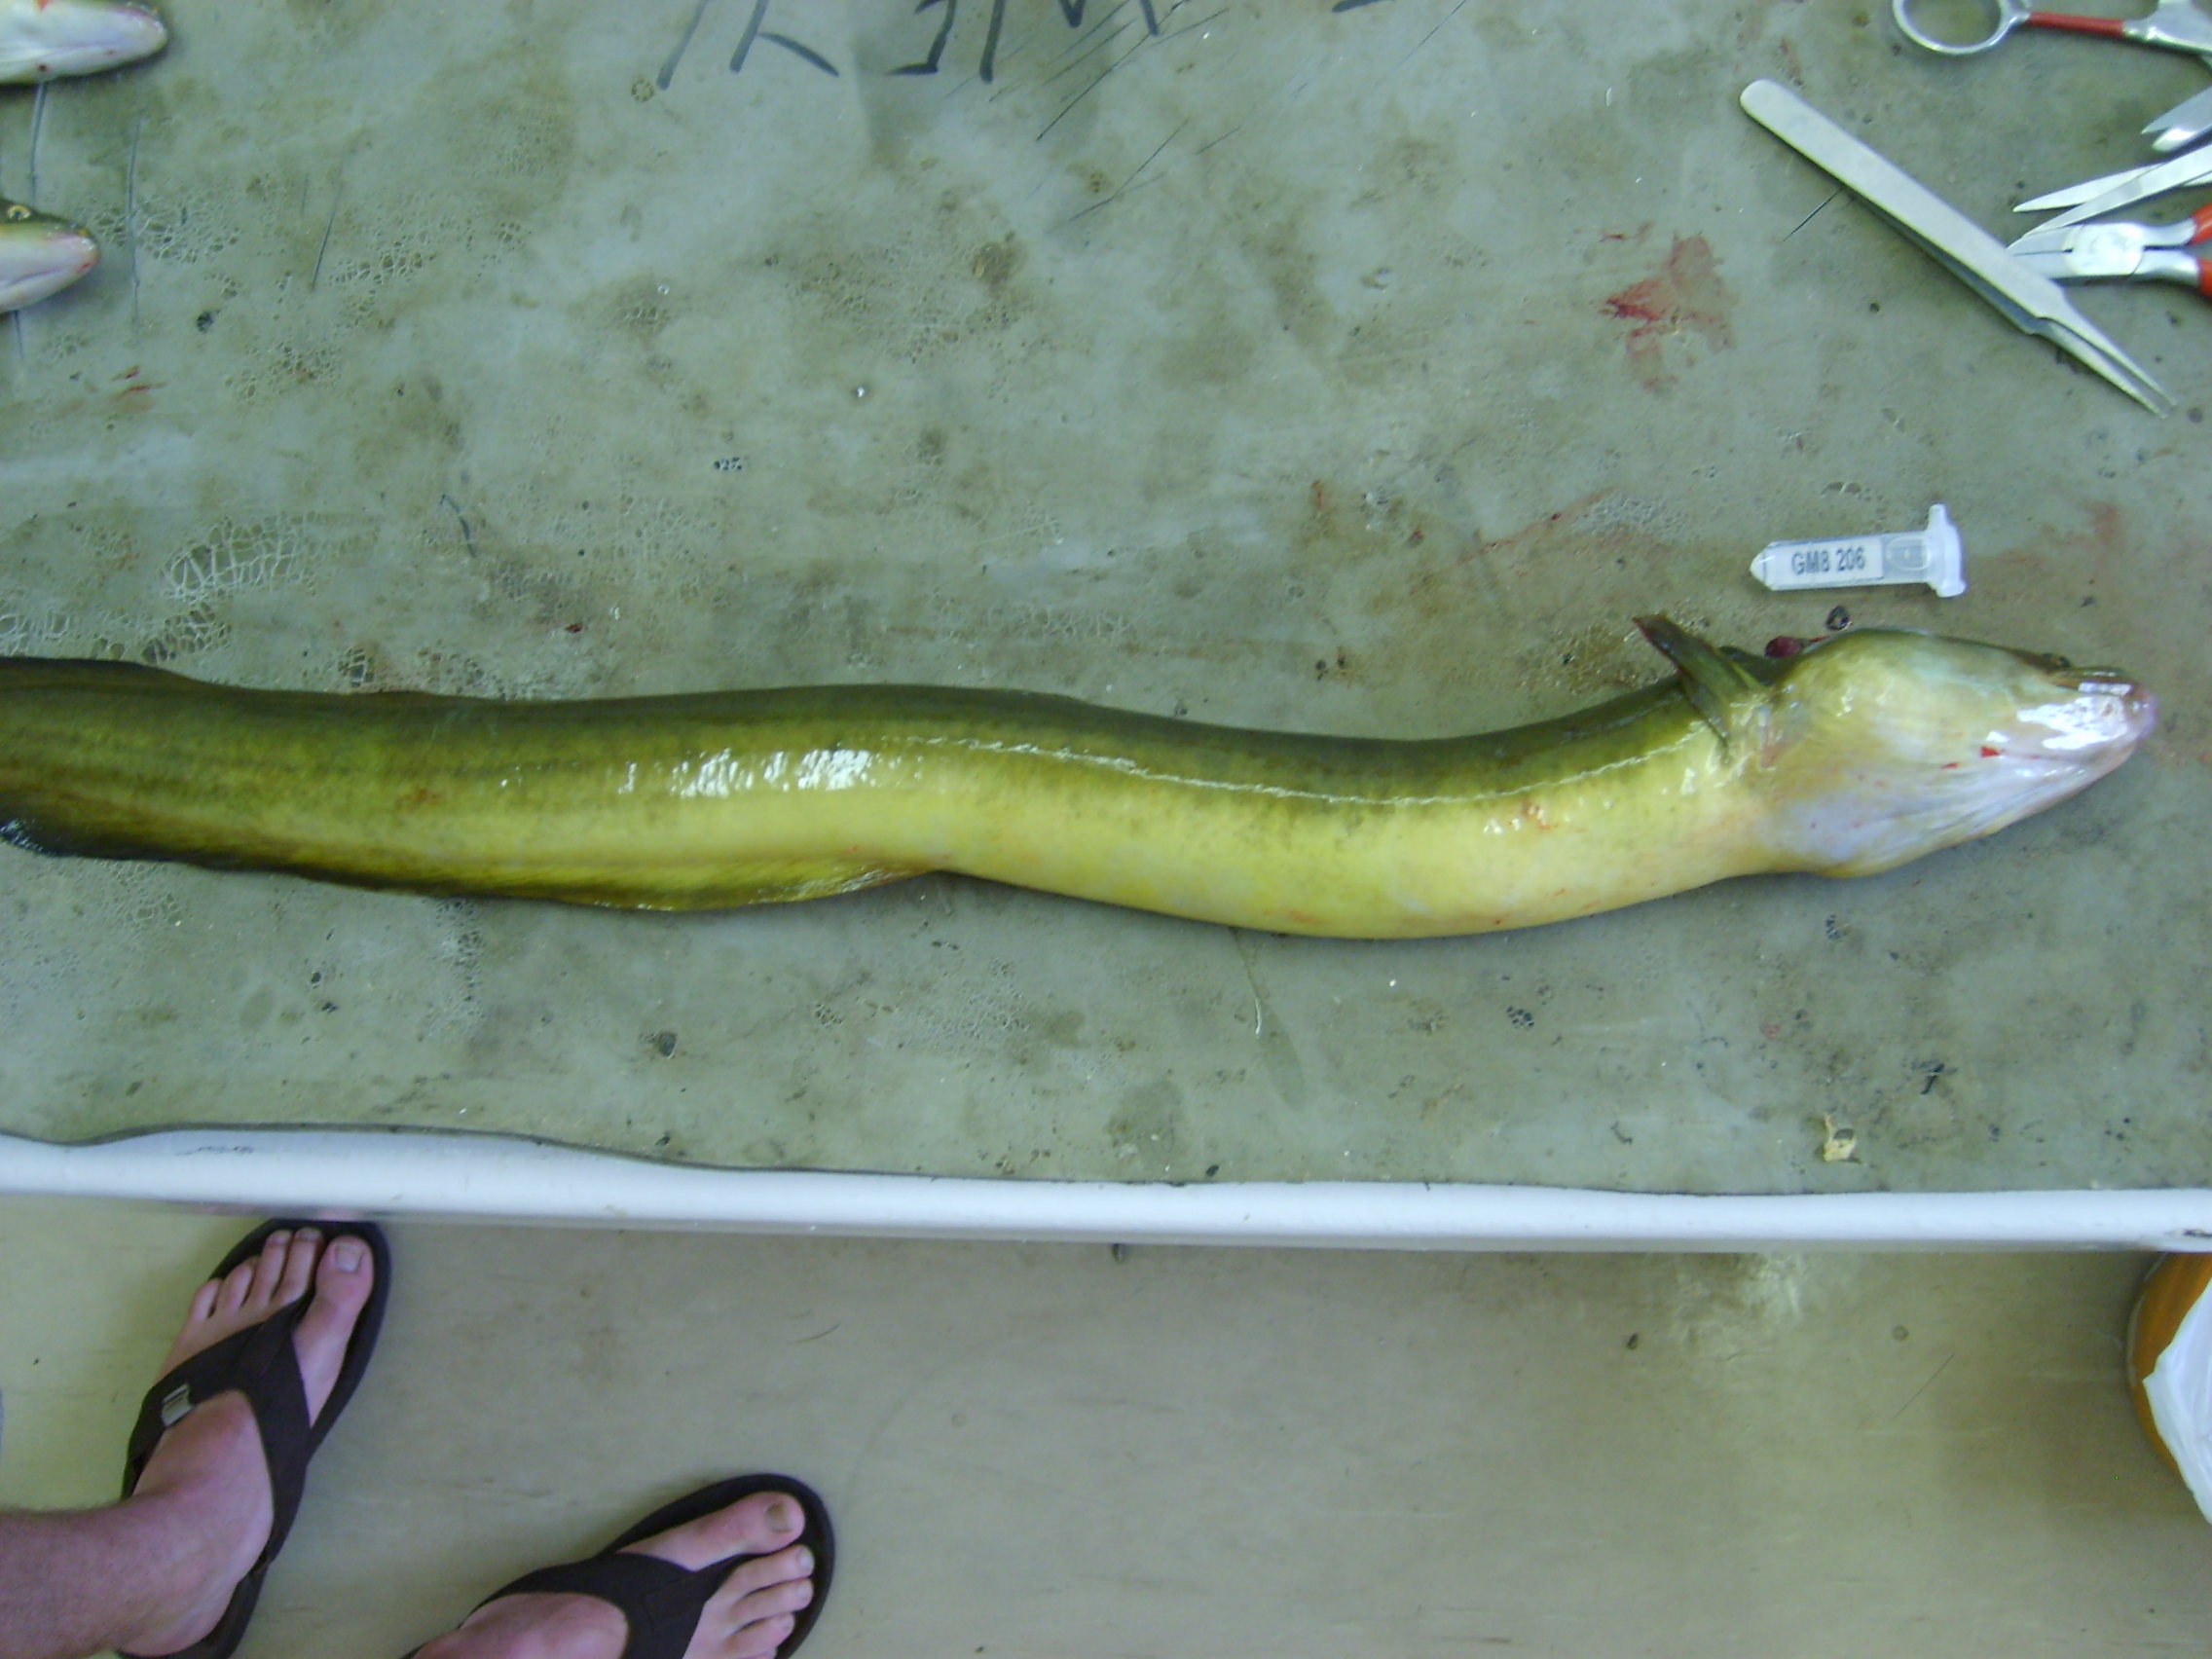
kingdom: Animalia
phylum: Chordata
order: Anguilliformes
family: Anguillidae
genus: Anguilla
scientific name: Anguilla mossambica
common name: African longfin eel
